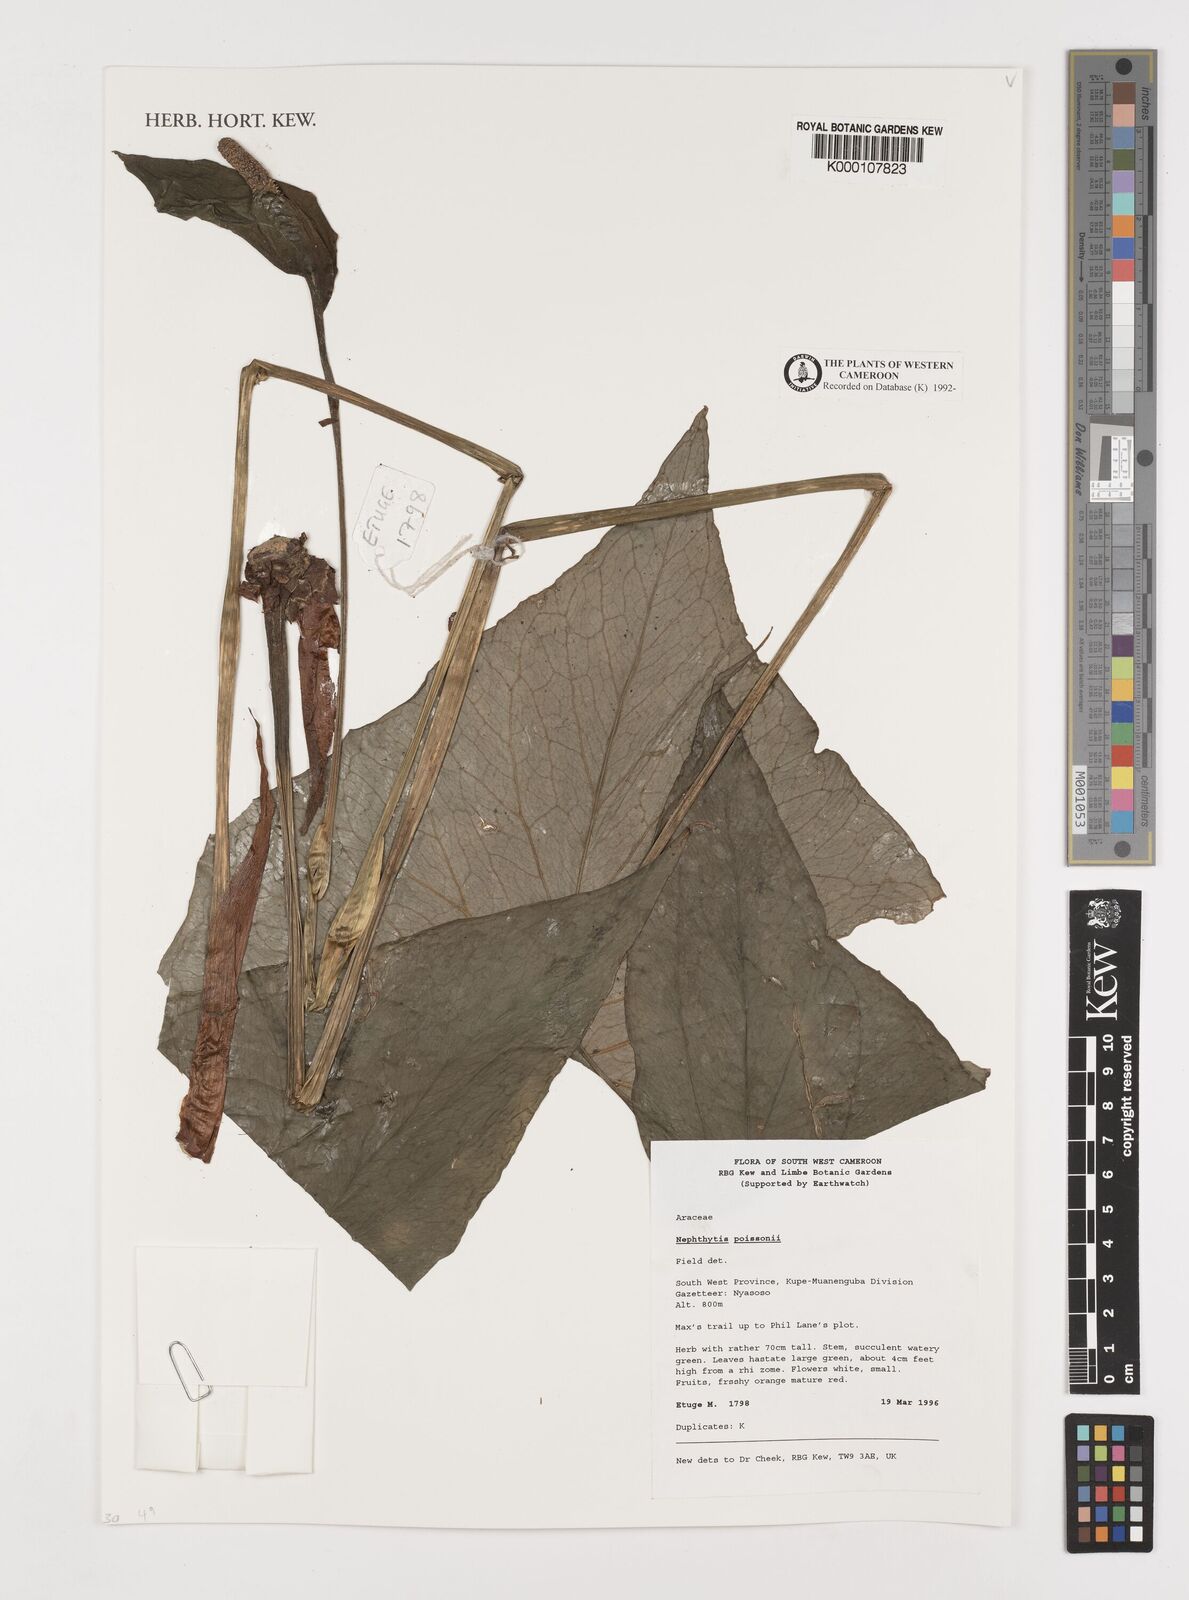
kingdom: Plantae
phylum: Tracheophyta
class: Liliopsida
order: Alismatales
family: Araceae
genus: Nephthytis
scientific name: Nephthytis poissonii
